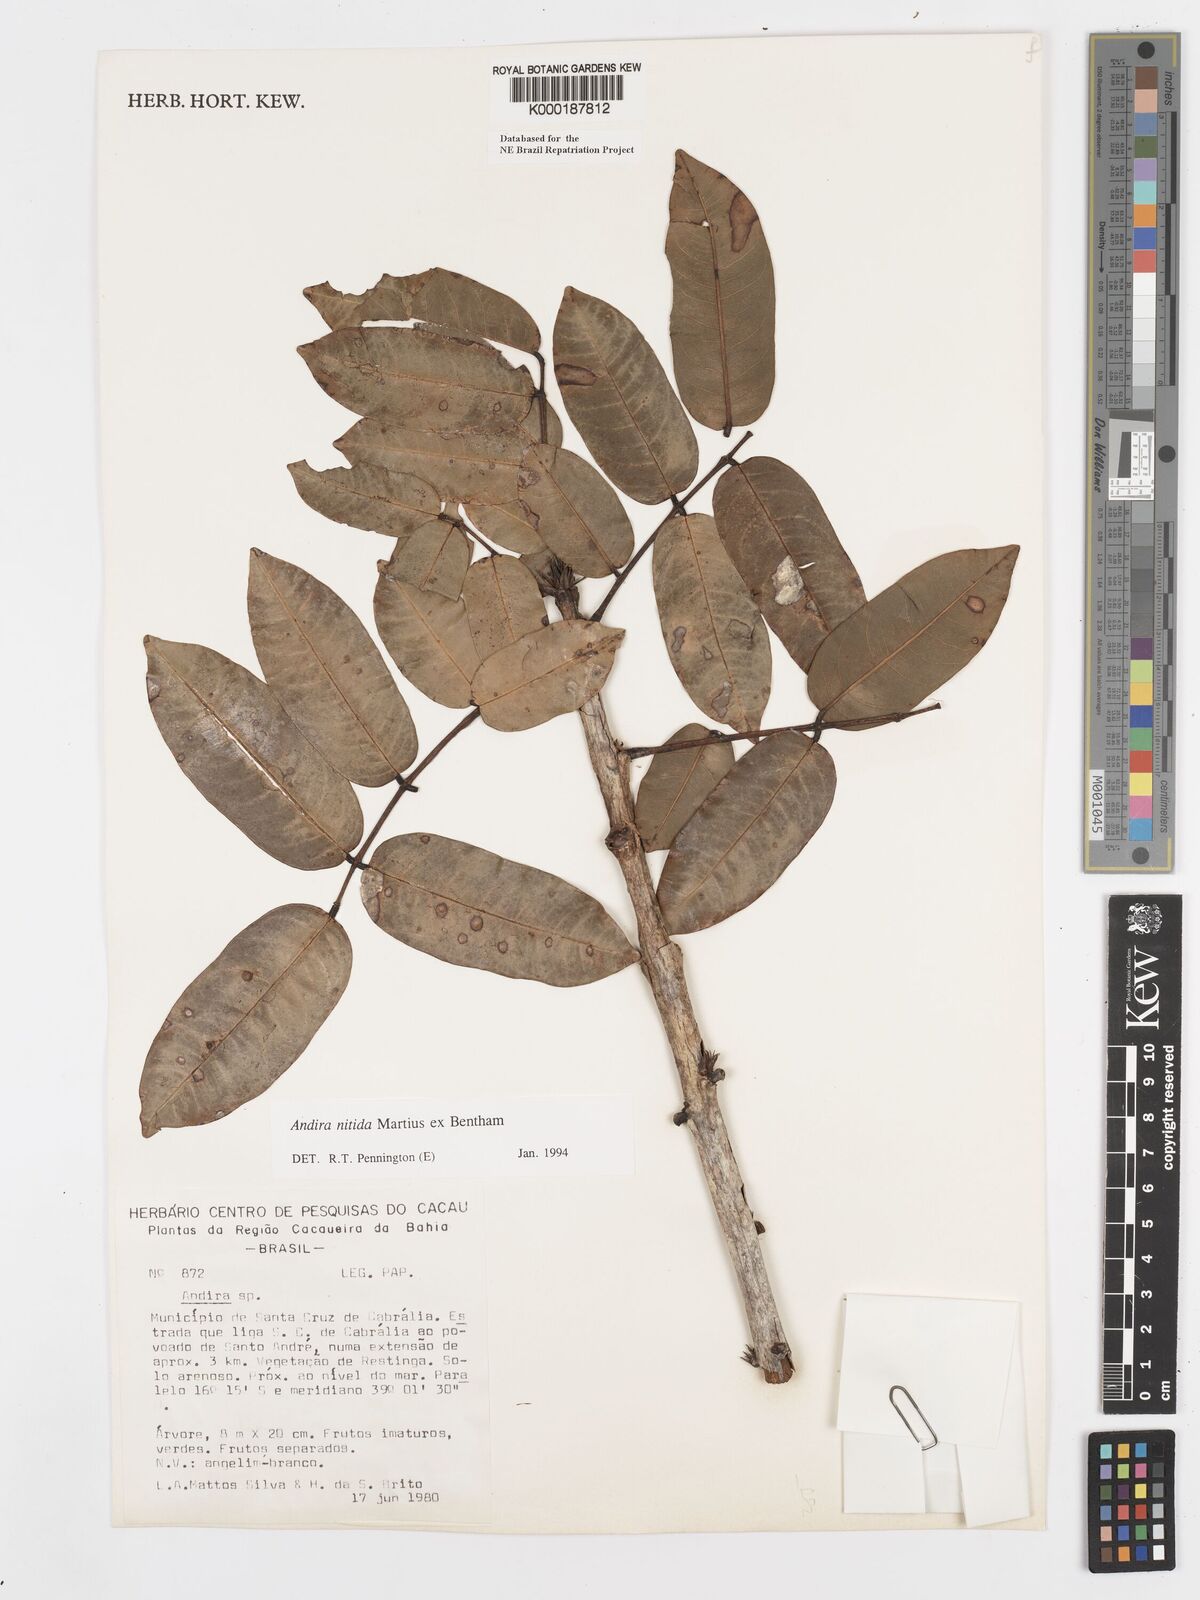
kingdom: Plantae
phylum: Tracheophyta
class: Magnoliopsida
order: Fabales
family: Fabaceae
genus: Andira
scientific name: Andira nitida
